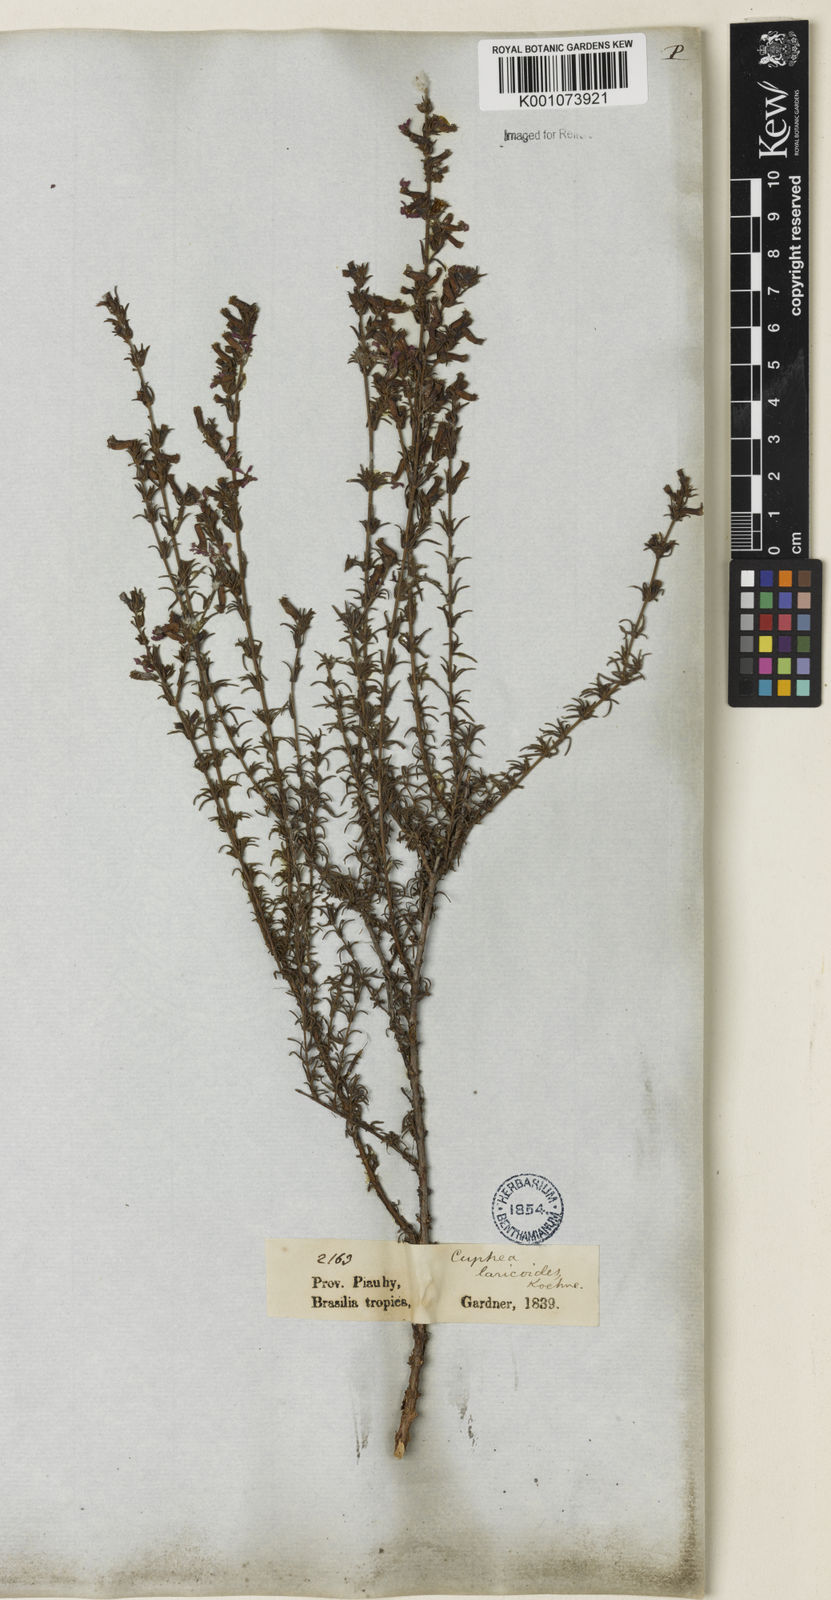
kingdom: Plantae
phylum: Tracheophyta
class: Magnoliopsida
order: Myrtales
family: Lythraceae
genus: Cuphea
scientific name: Cuphea laricoides
